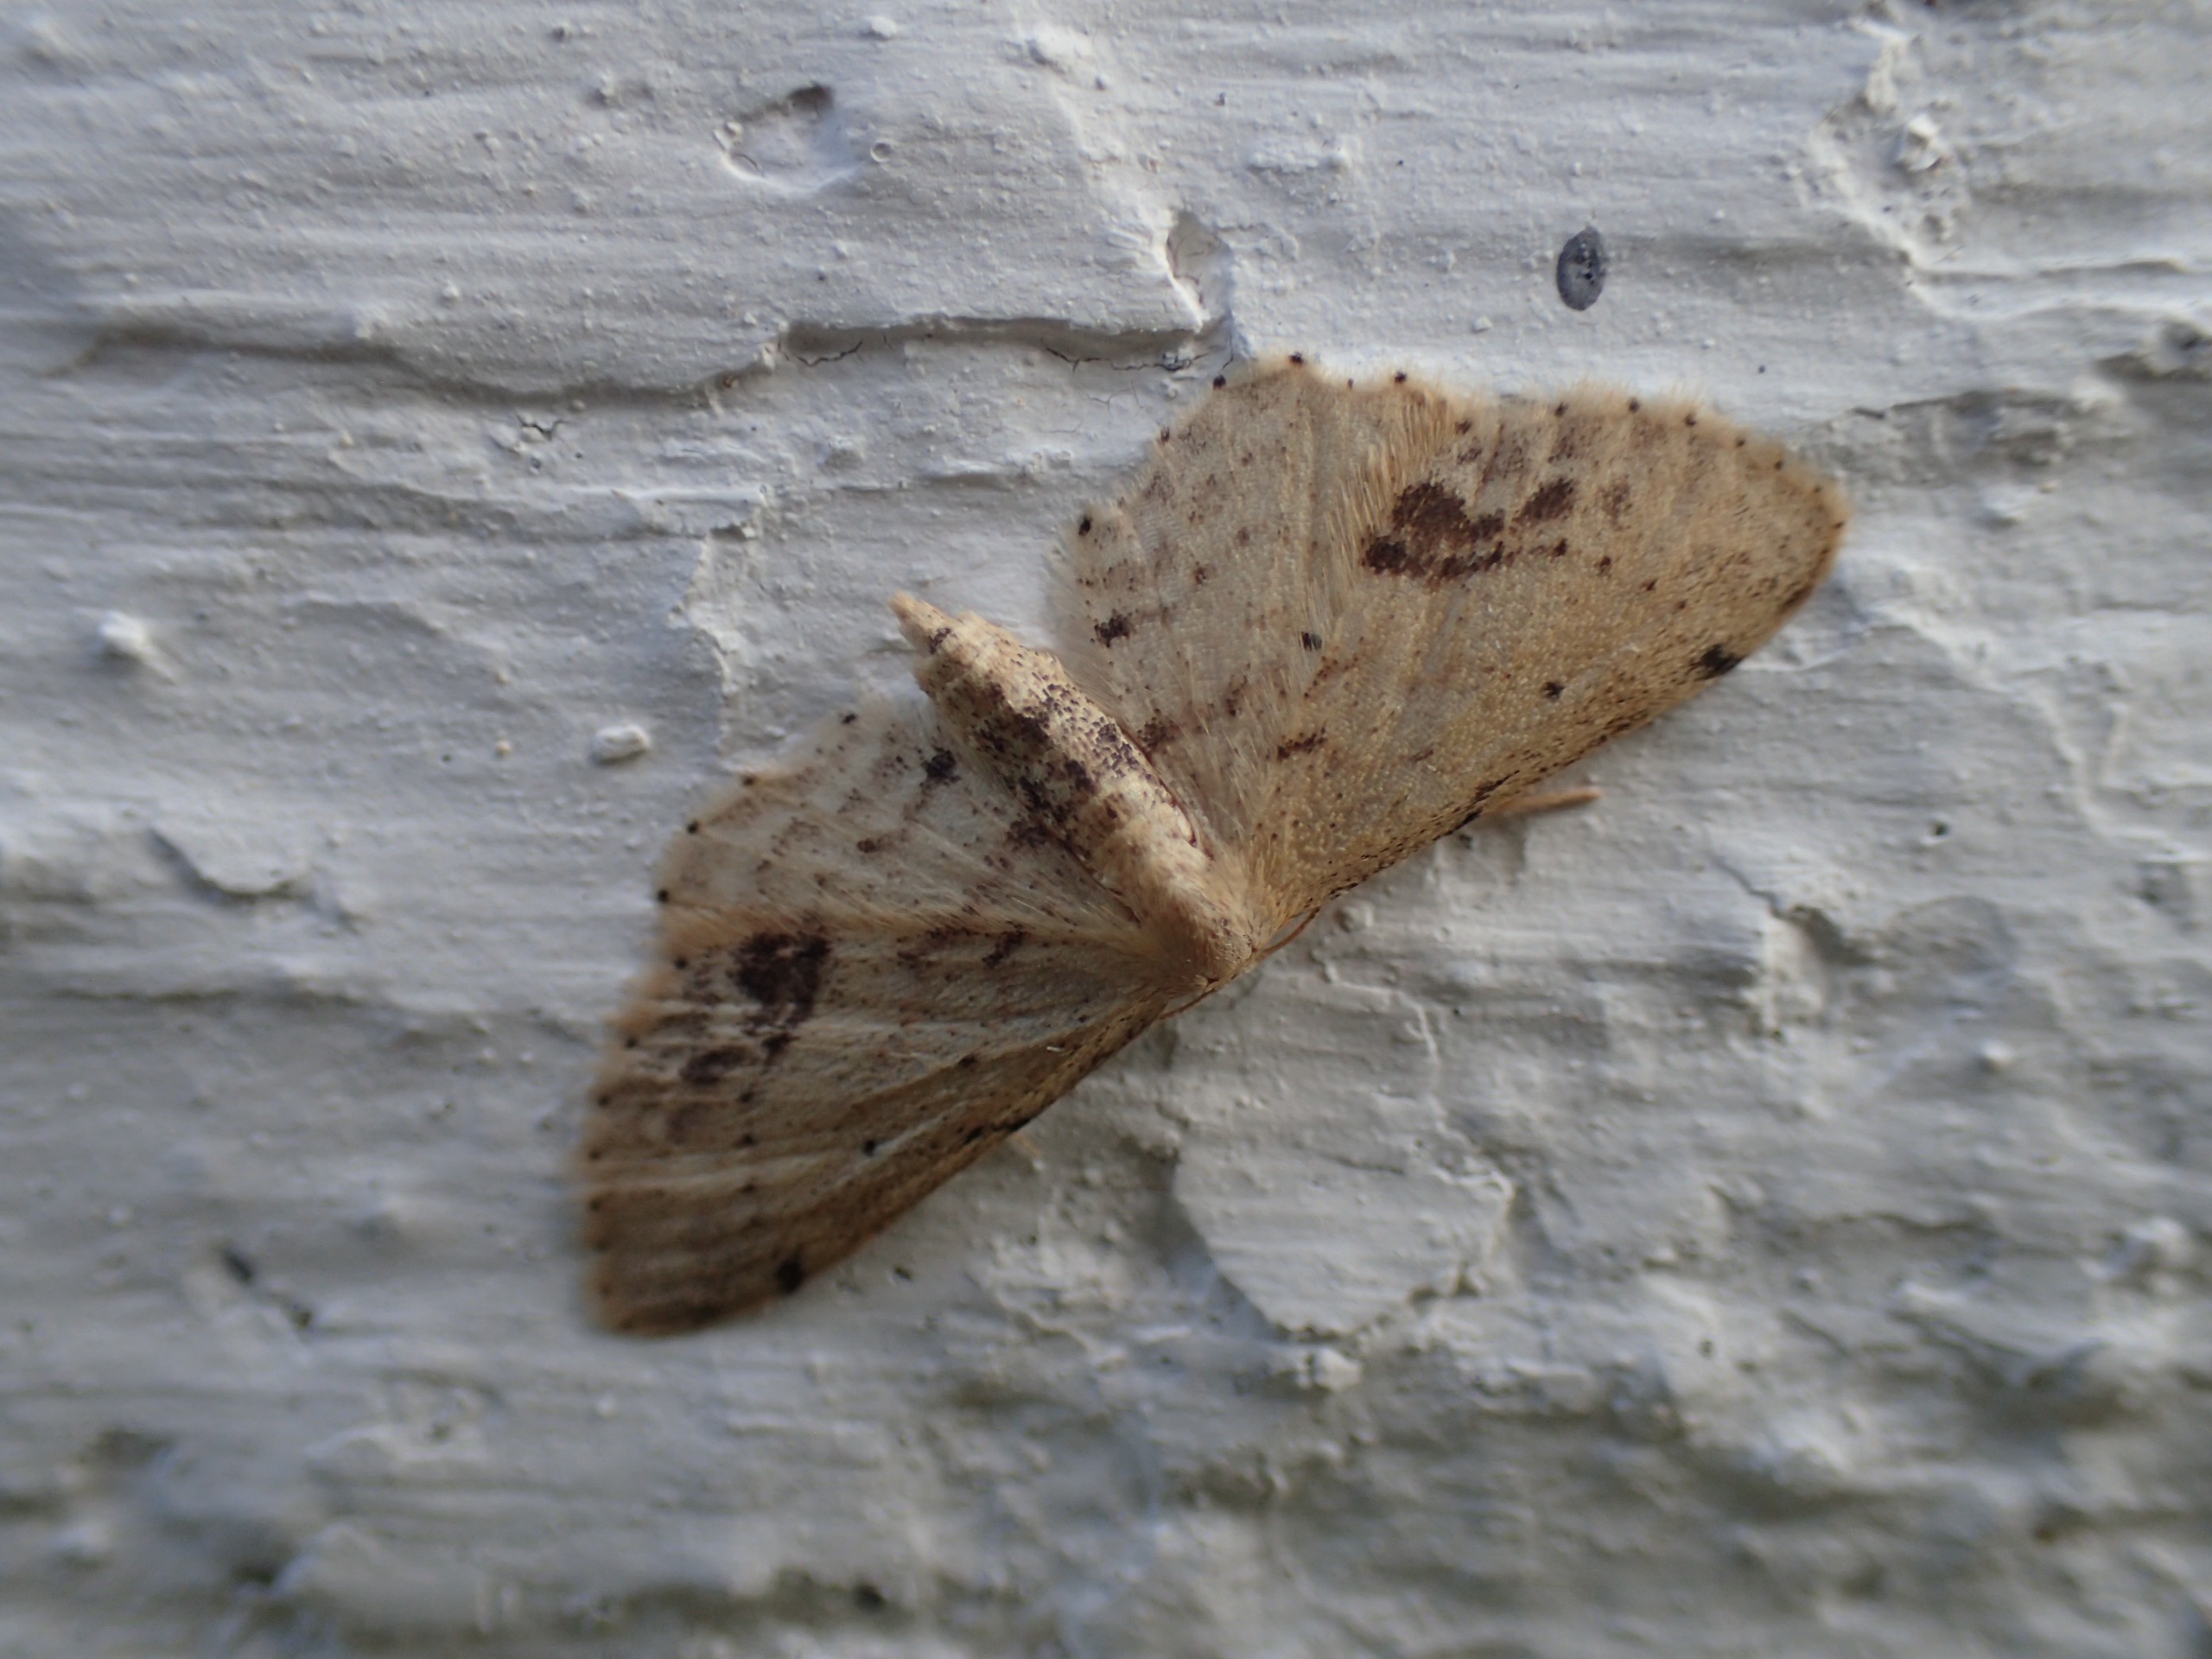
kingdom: Animalia
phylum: Arthropoda
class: Insecta
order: Lepidoptera
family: Geometridae
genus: Idaea
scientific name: Idaea dimidiata
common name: Sortplettet løvmåler
